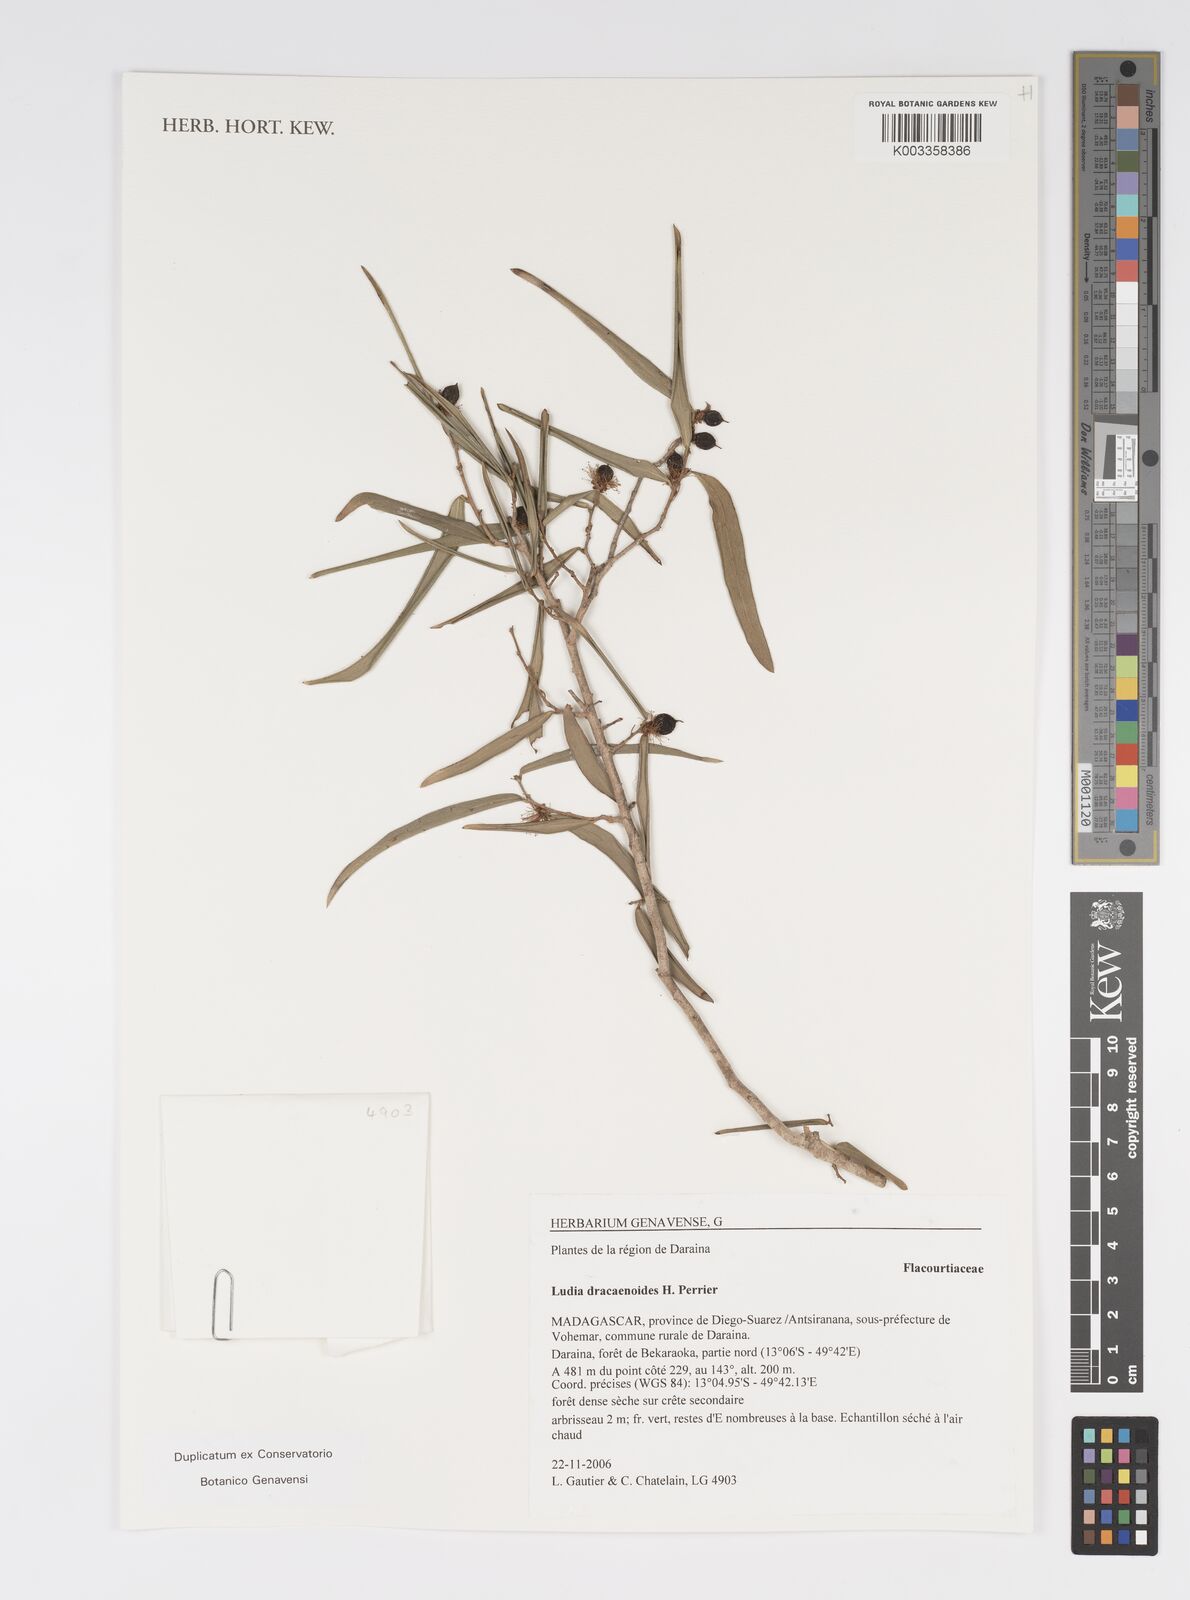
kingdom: Plantae
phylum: Tracheophyta
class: Magnoliopsida
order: Malpighiales
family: Salicaceae
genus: Ludia
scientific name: Ludia dracaenoides
